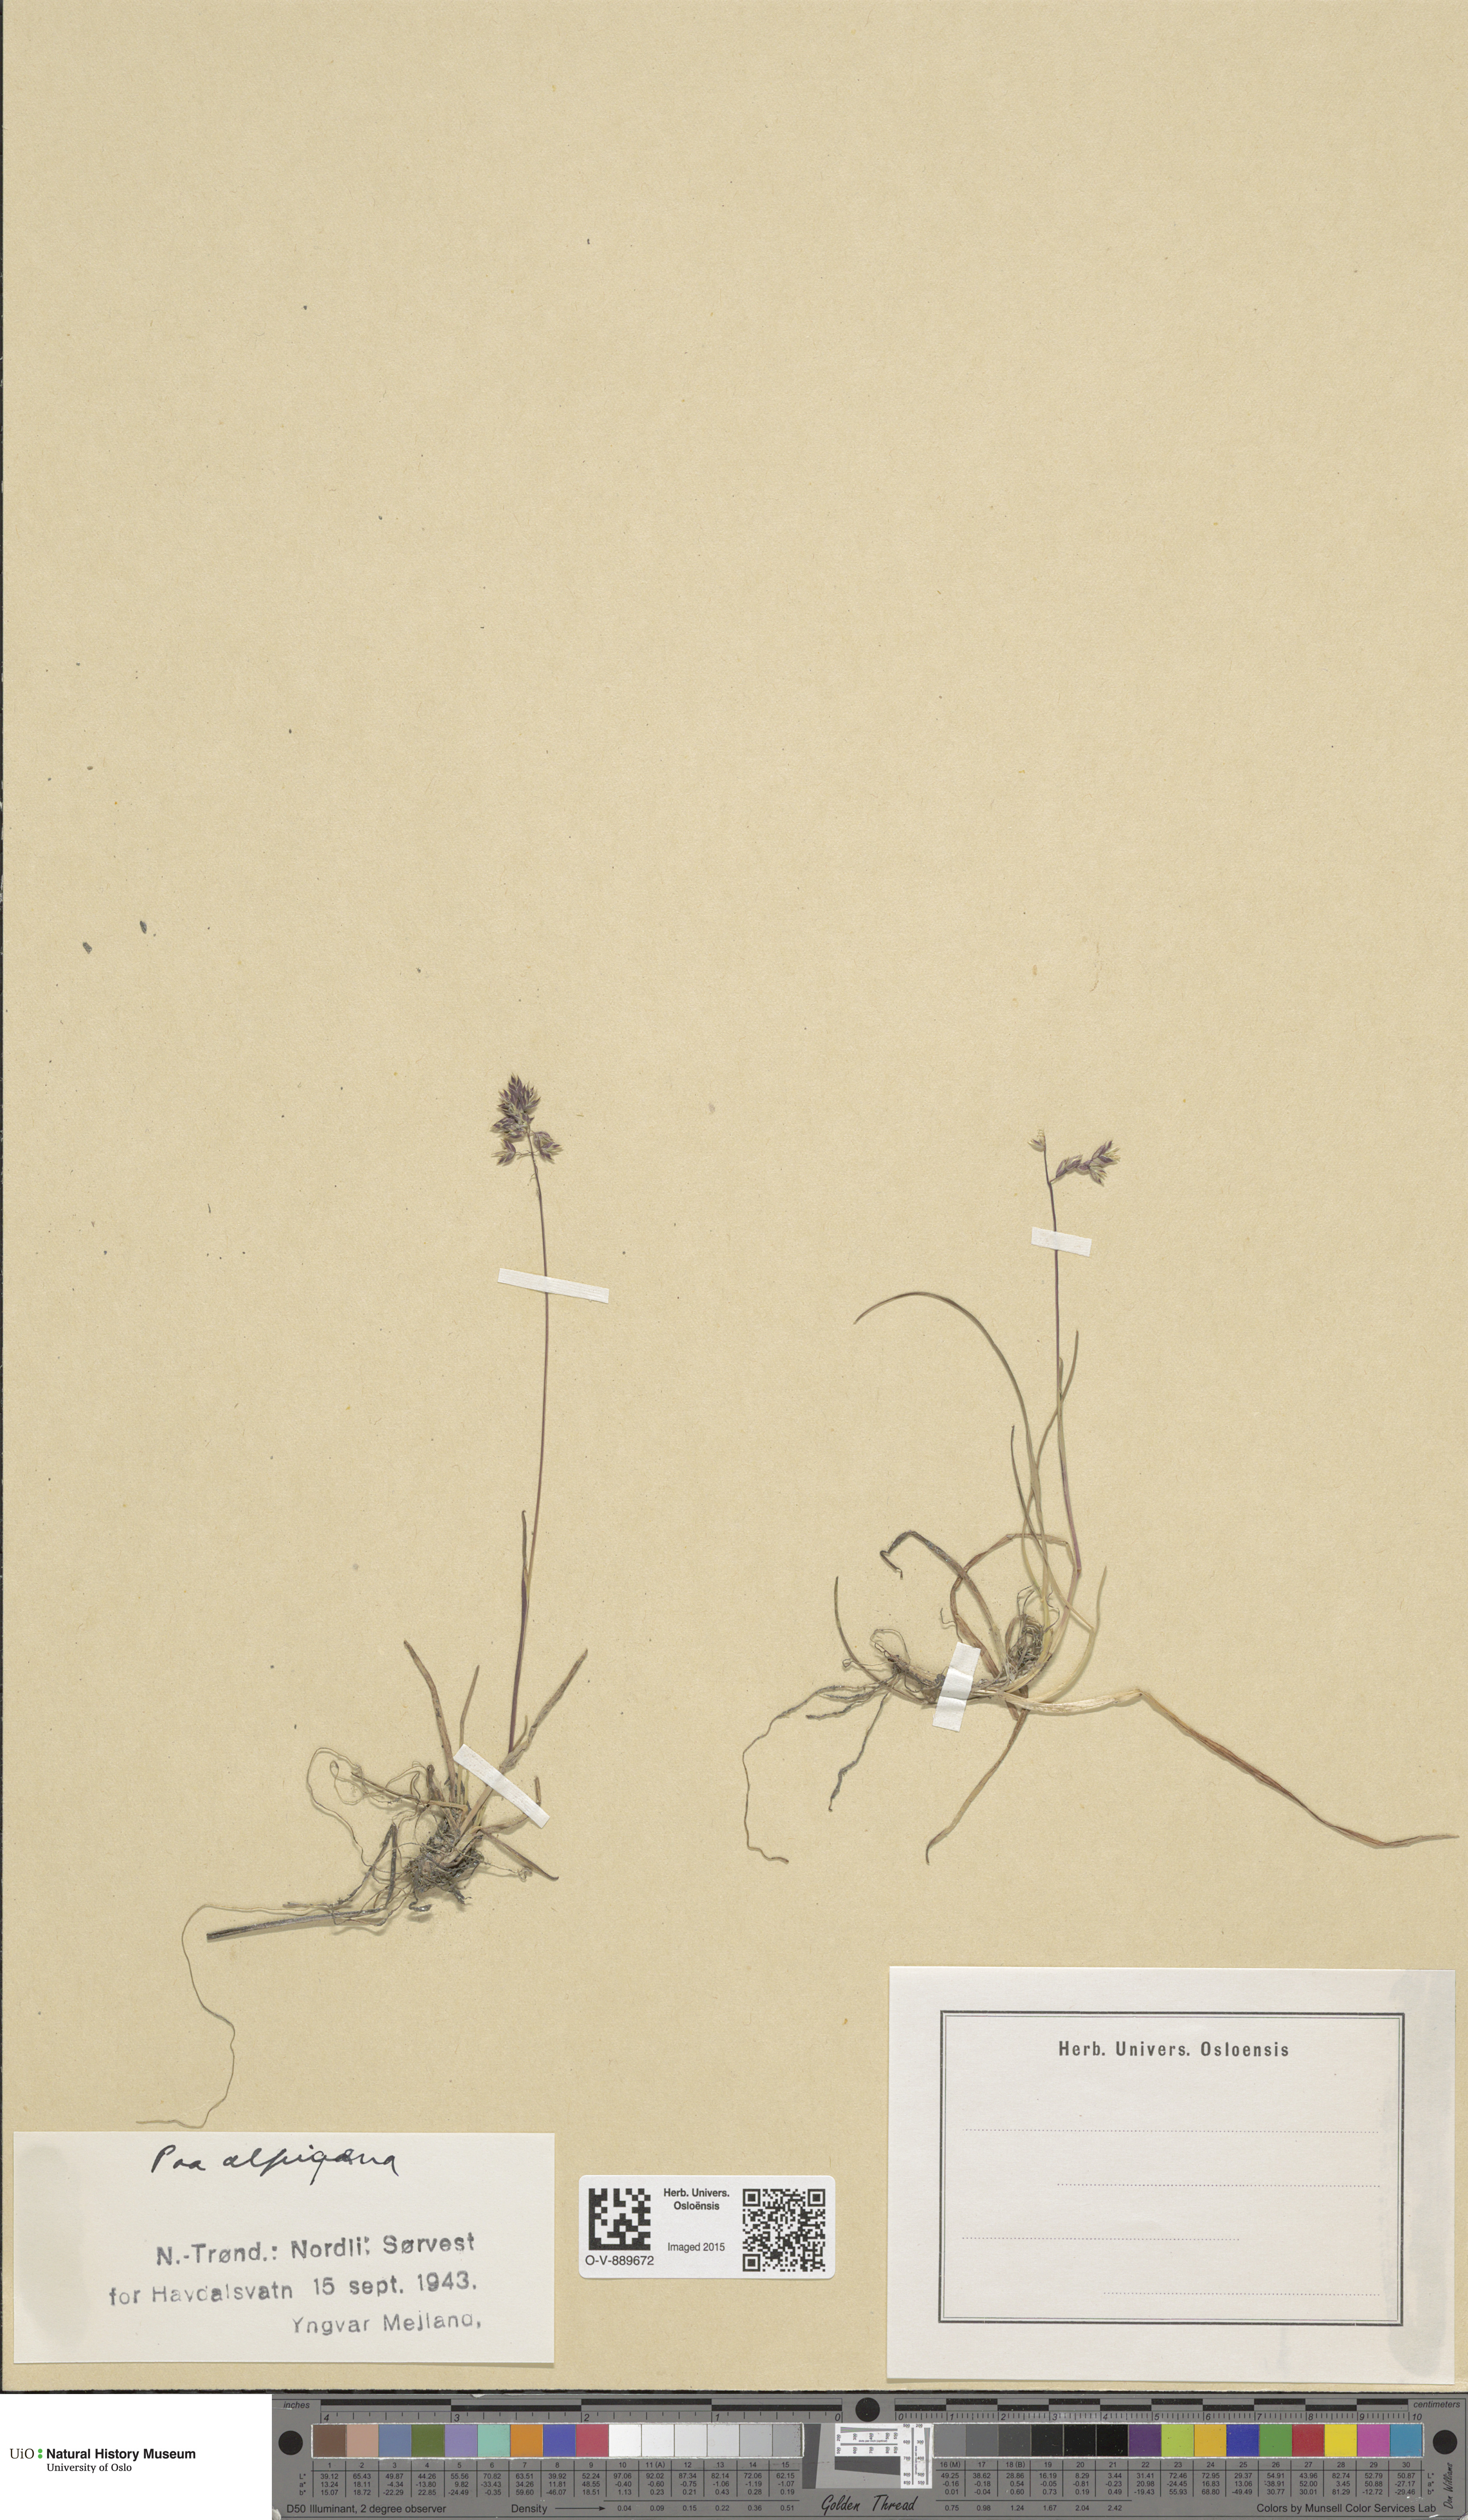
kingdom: Plantae
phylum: Tracheophyta
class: Liliopsida
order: Poales
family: Poaceae
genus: Poa
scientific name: Poa alpigena
